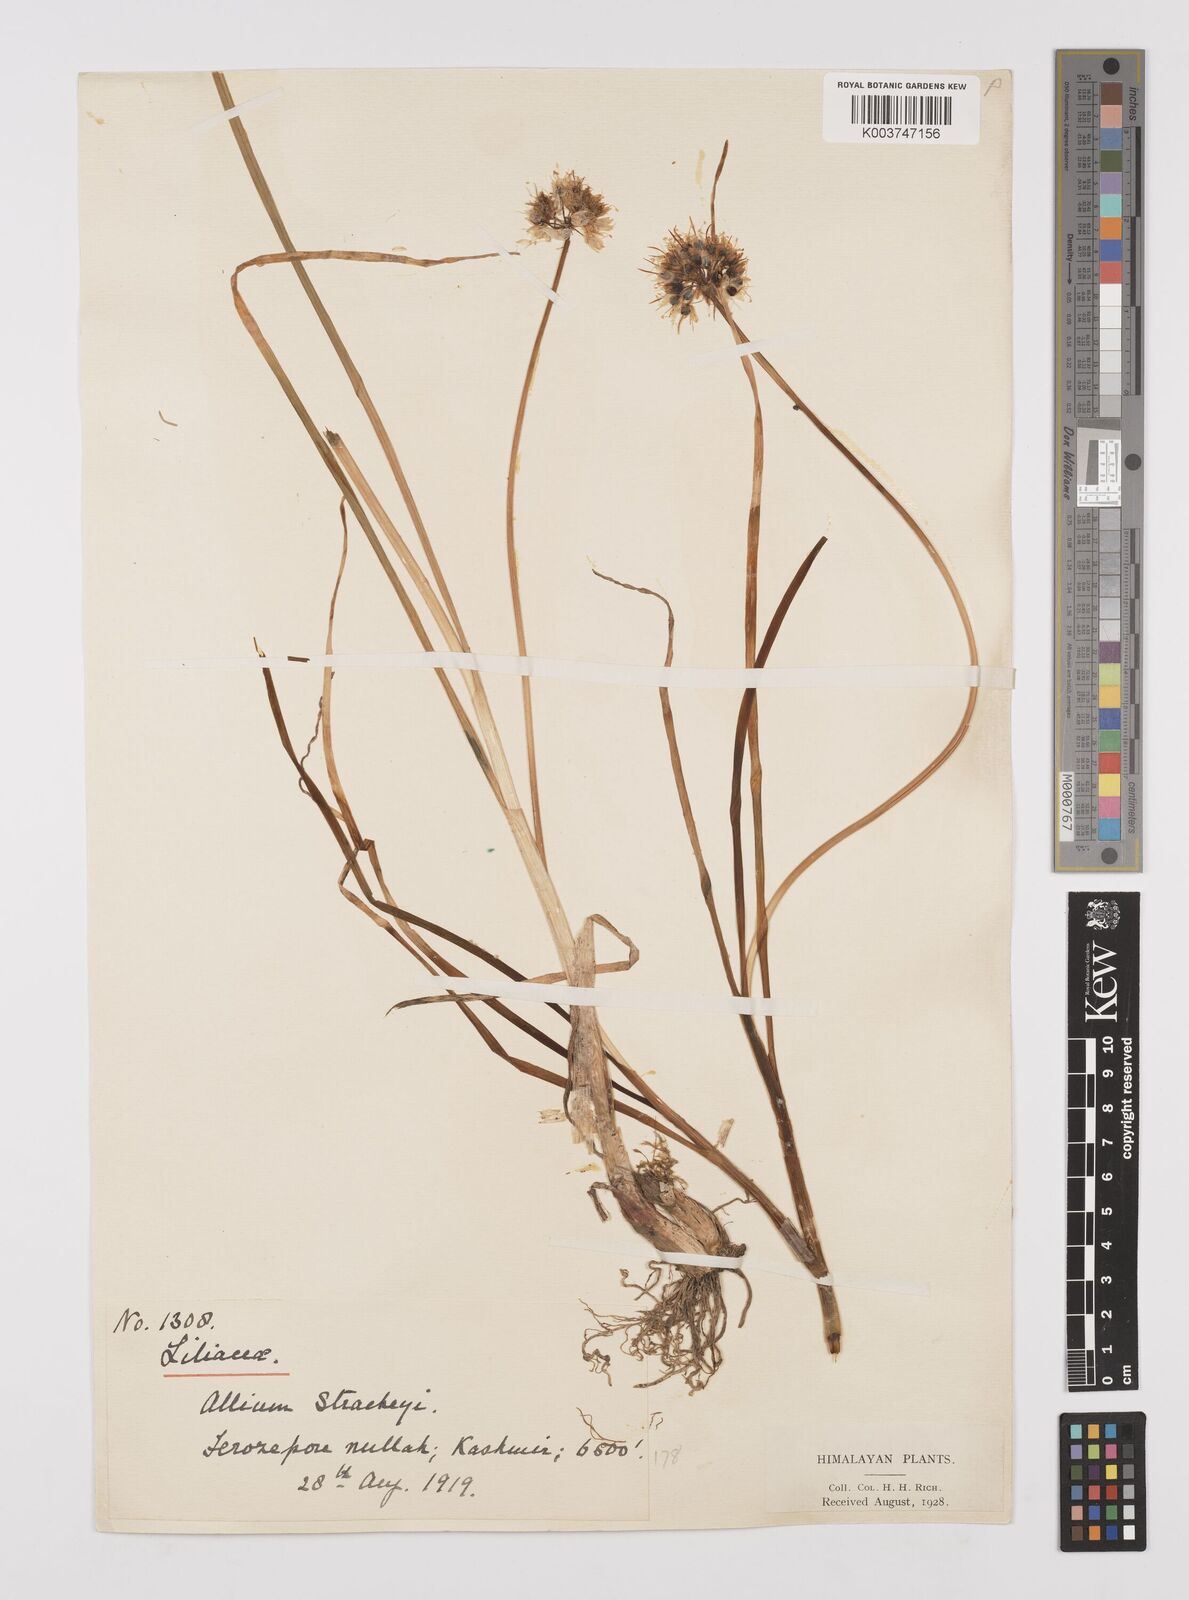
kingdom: Plantae
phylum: Tracheophyta
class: Liliopsida
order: Asparagales
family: Amaryllidaceae
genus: Allium
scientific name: Allium stracheyi
